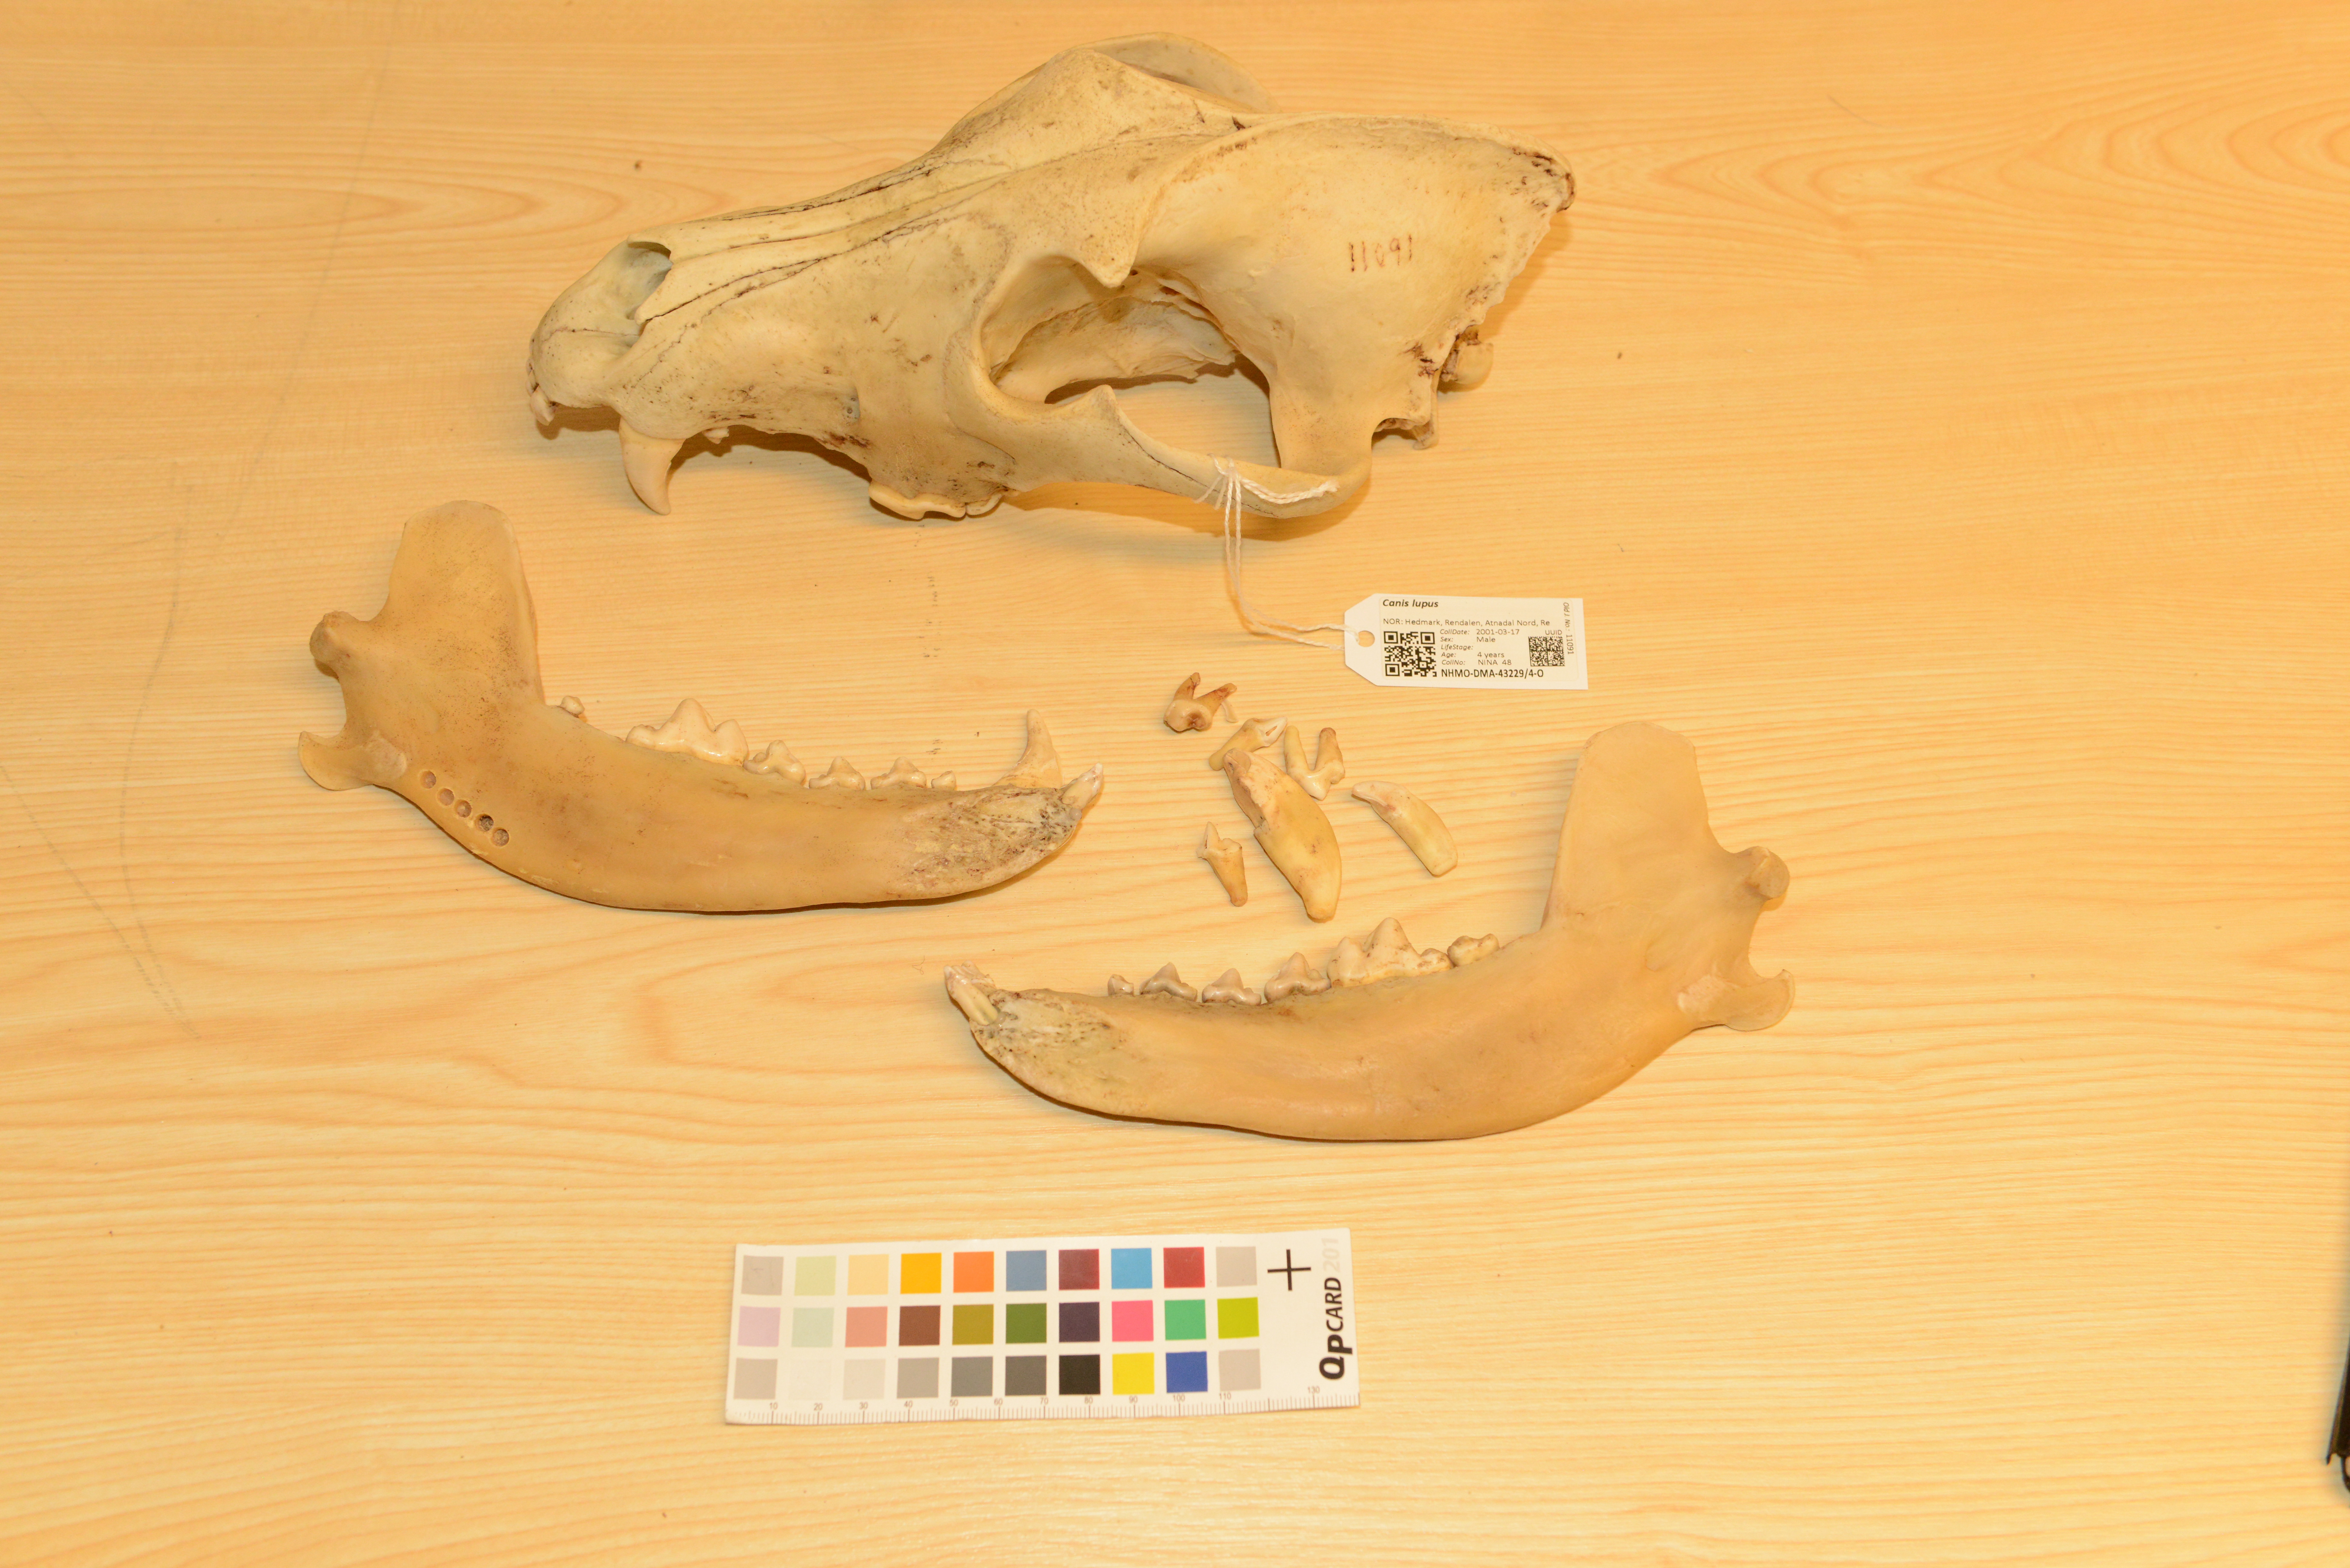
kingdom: Animalia
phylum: Chordata
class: Mammalia
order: Carnivora
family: Canidae
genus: Canis
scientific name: Canis lupus
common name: Gray wolf
